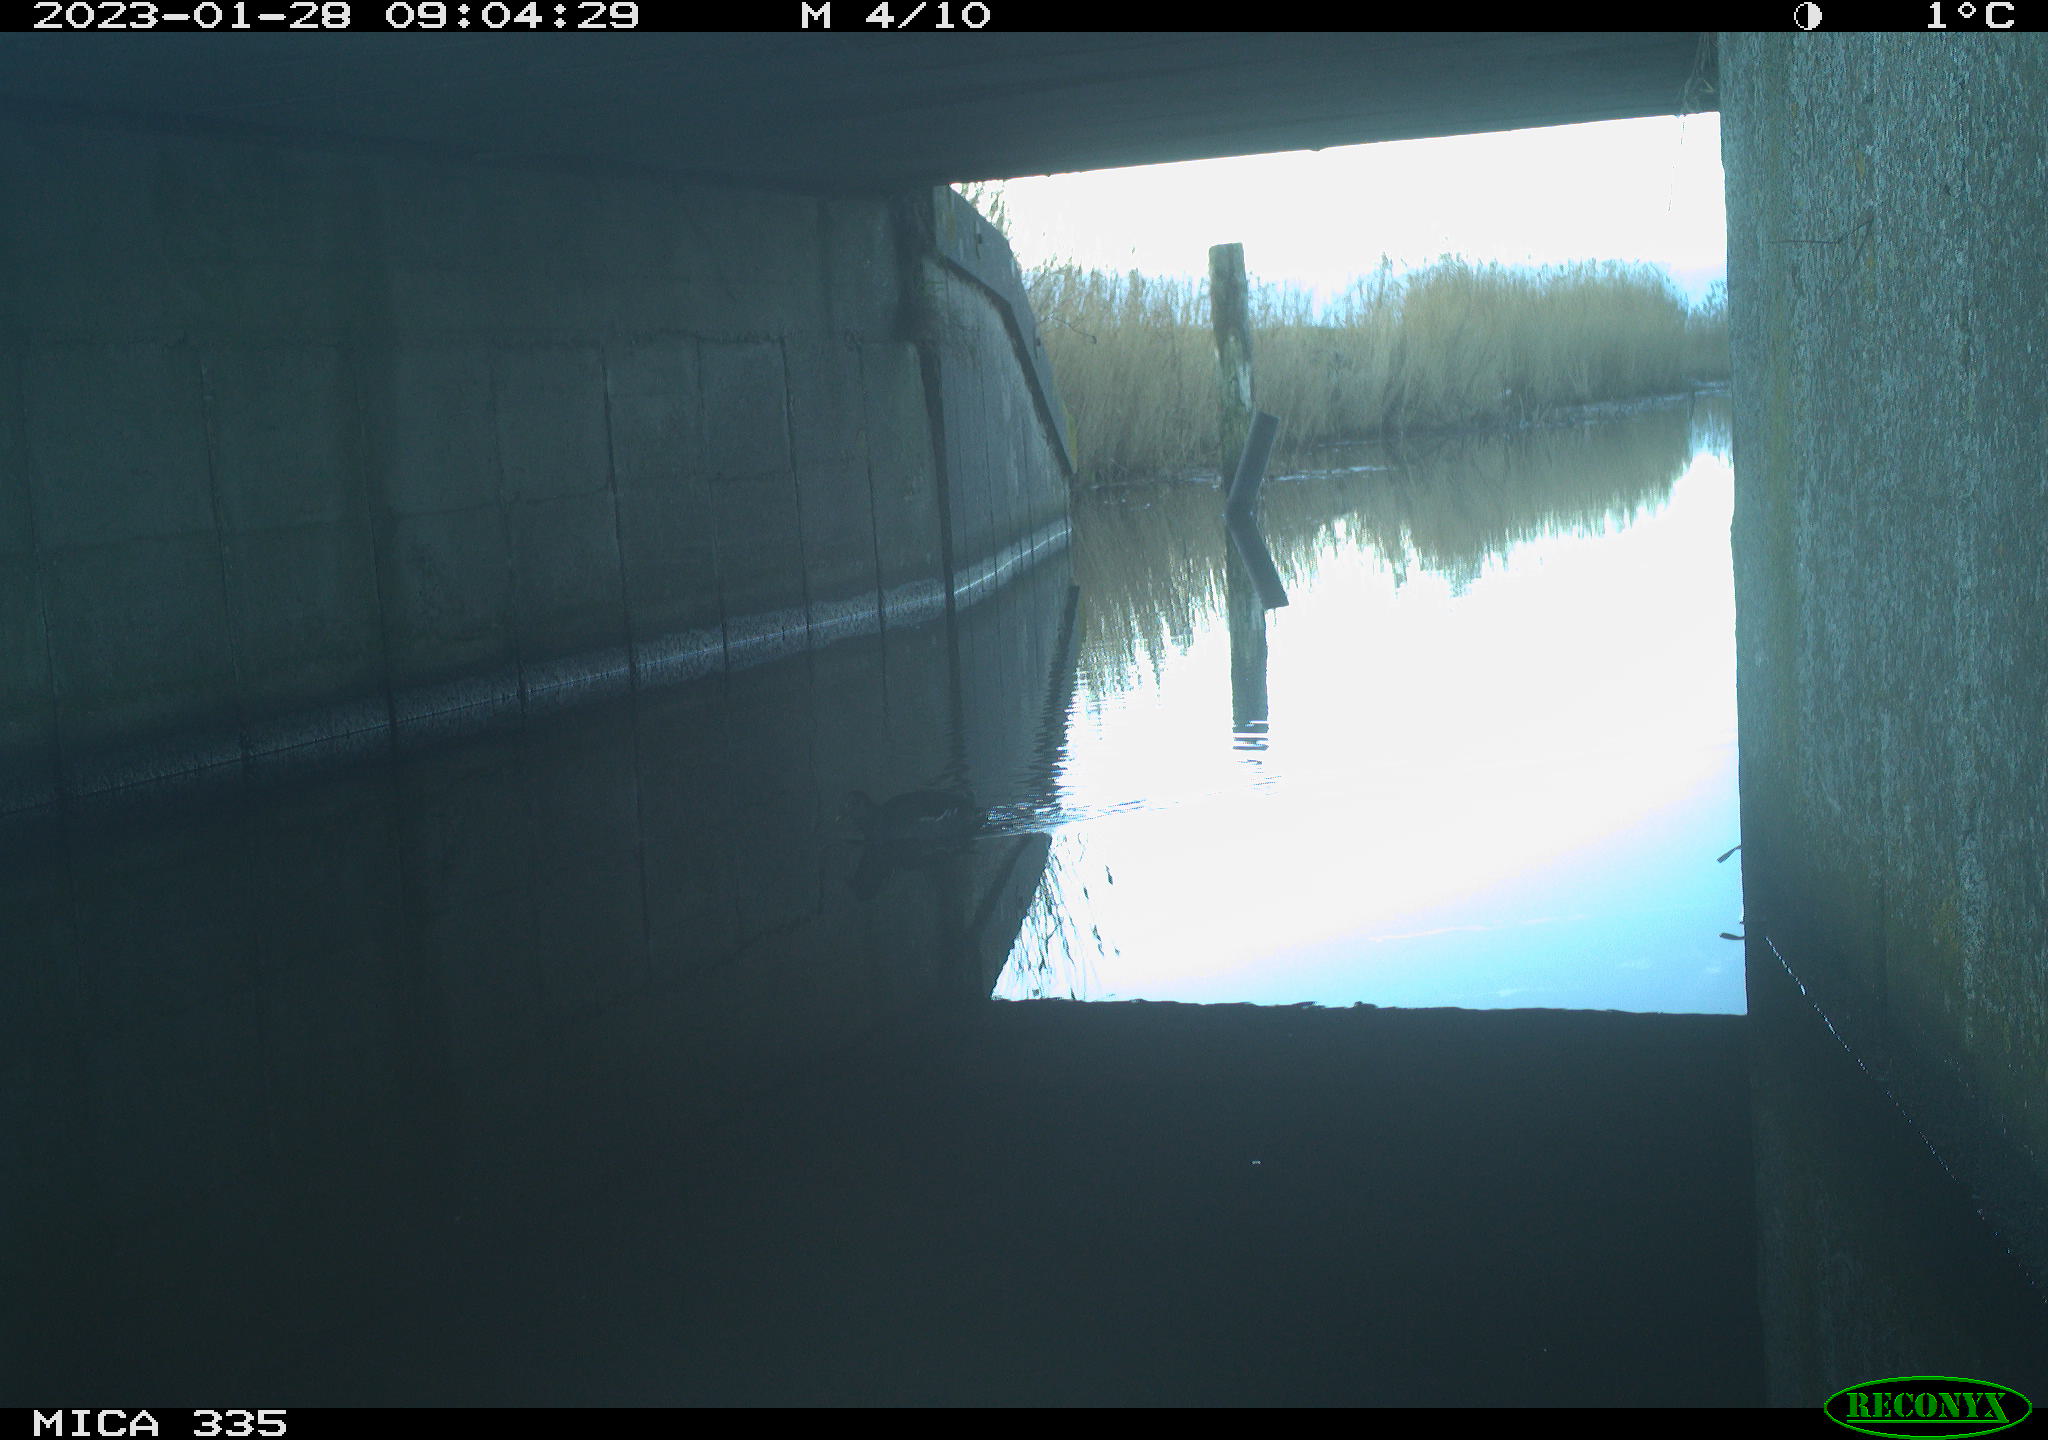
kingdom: Animalia
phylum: Chordata
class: Aves
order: Gruiformes
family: Rallidae
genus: Gallinula
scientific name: Gallinula chloropus
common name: Common moorhen
